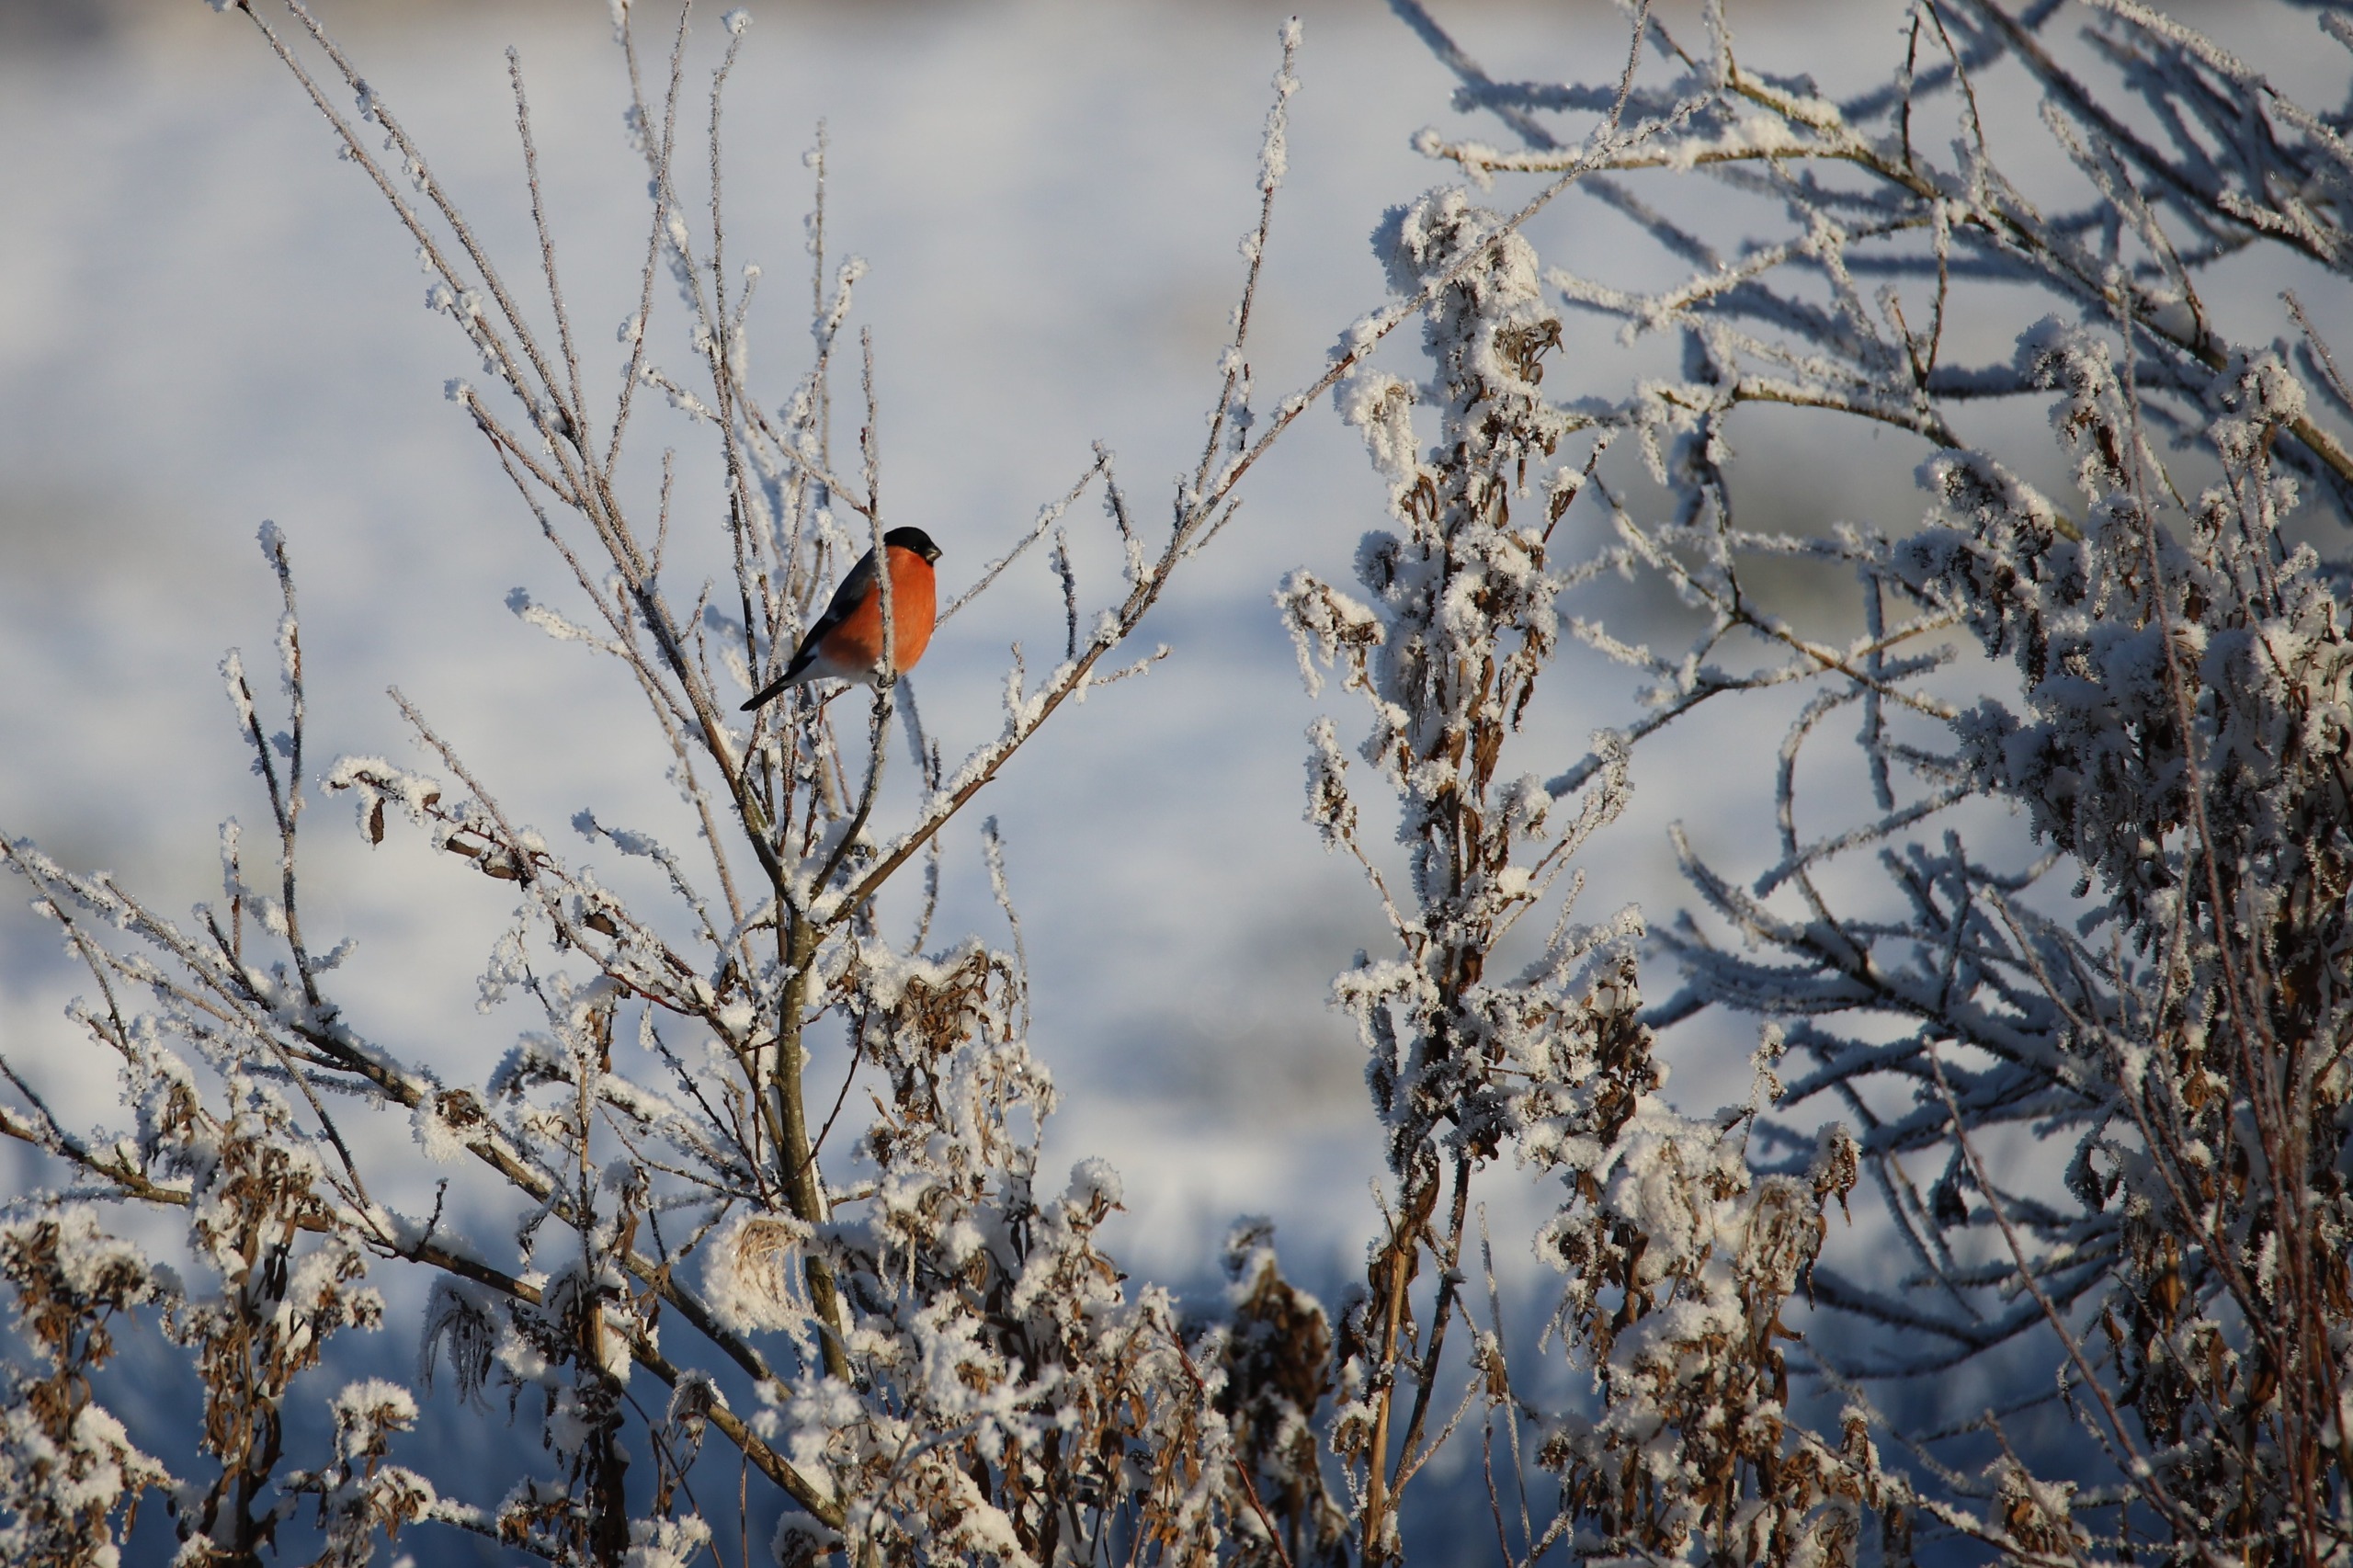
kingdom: Animalia
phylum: Chordata
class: Aves
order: Passeriformes
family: Fringillidae
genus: Pyrrhula
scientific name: Pyrrhula pyrrhula
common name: Dompap
